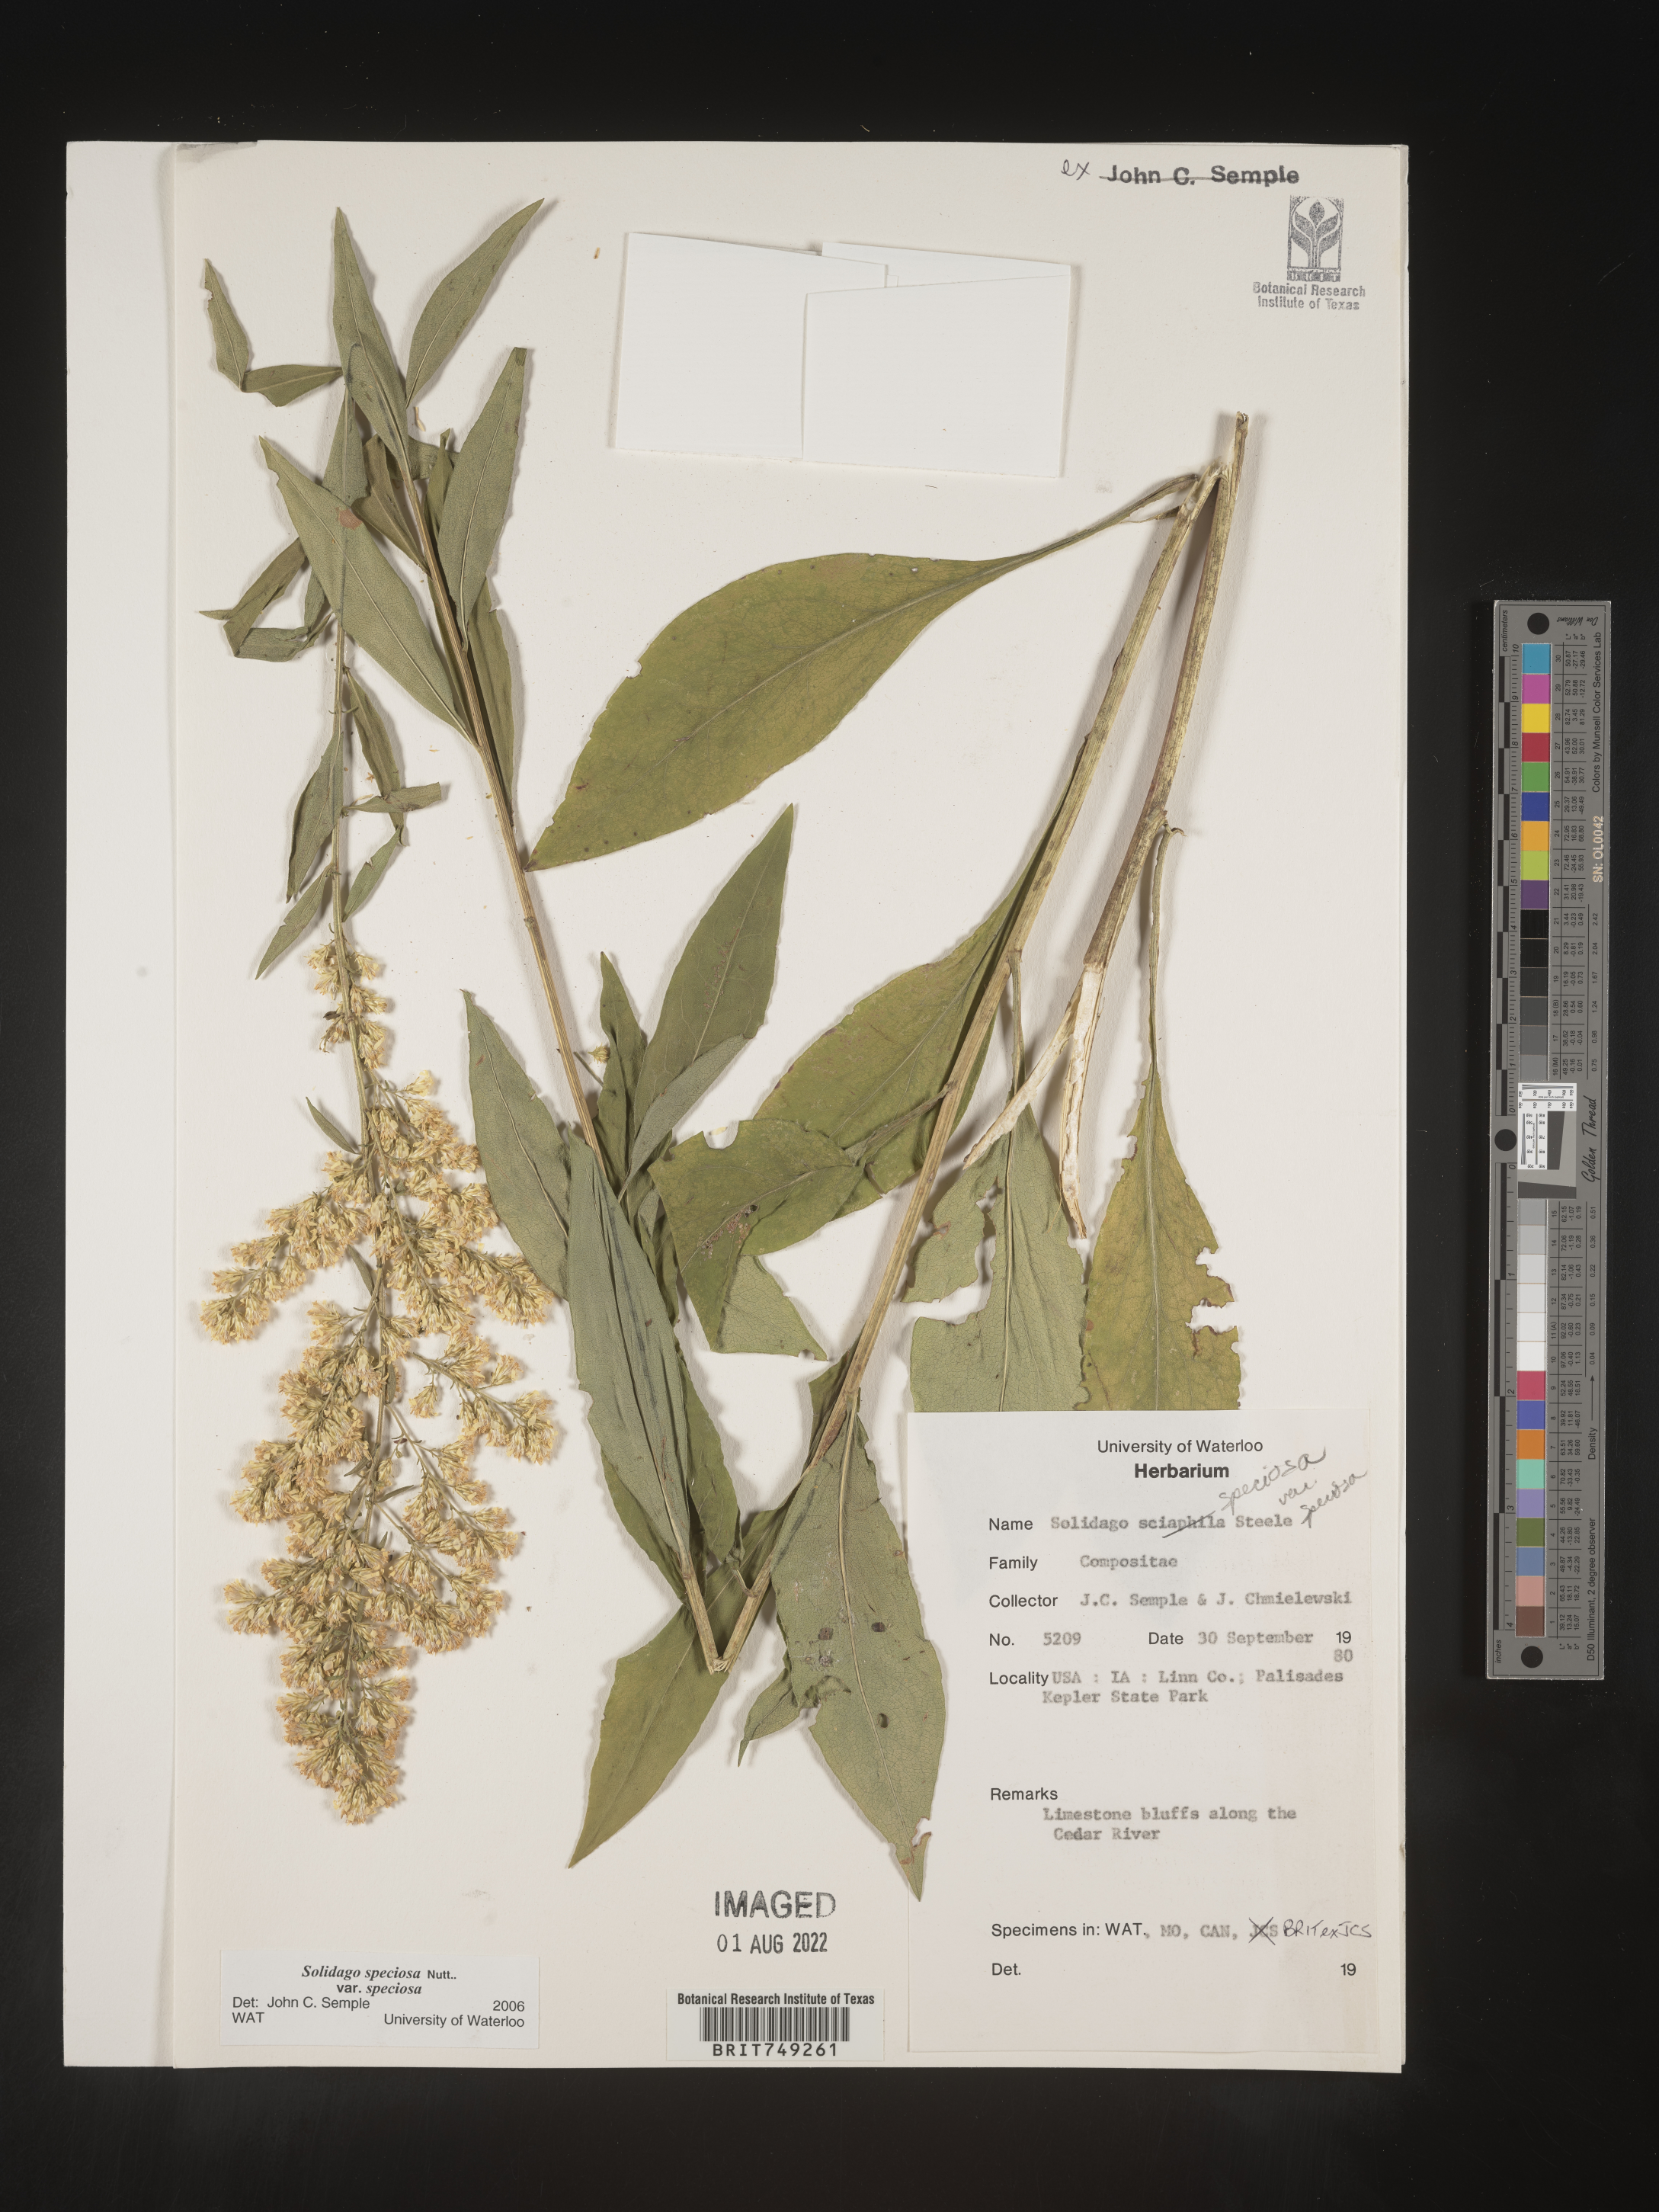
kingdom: Plantae
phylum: Tracheophyta
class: Magnoliopsida
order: Asterales
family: Asteraceae
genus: Solidago
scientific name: Solidago speciosa
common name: Showy goldenrod
